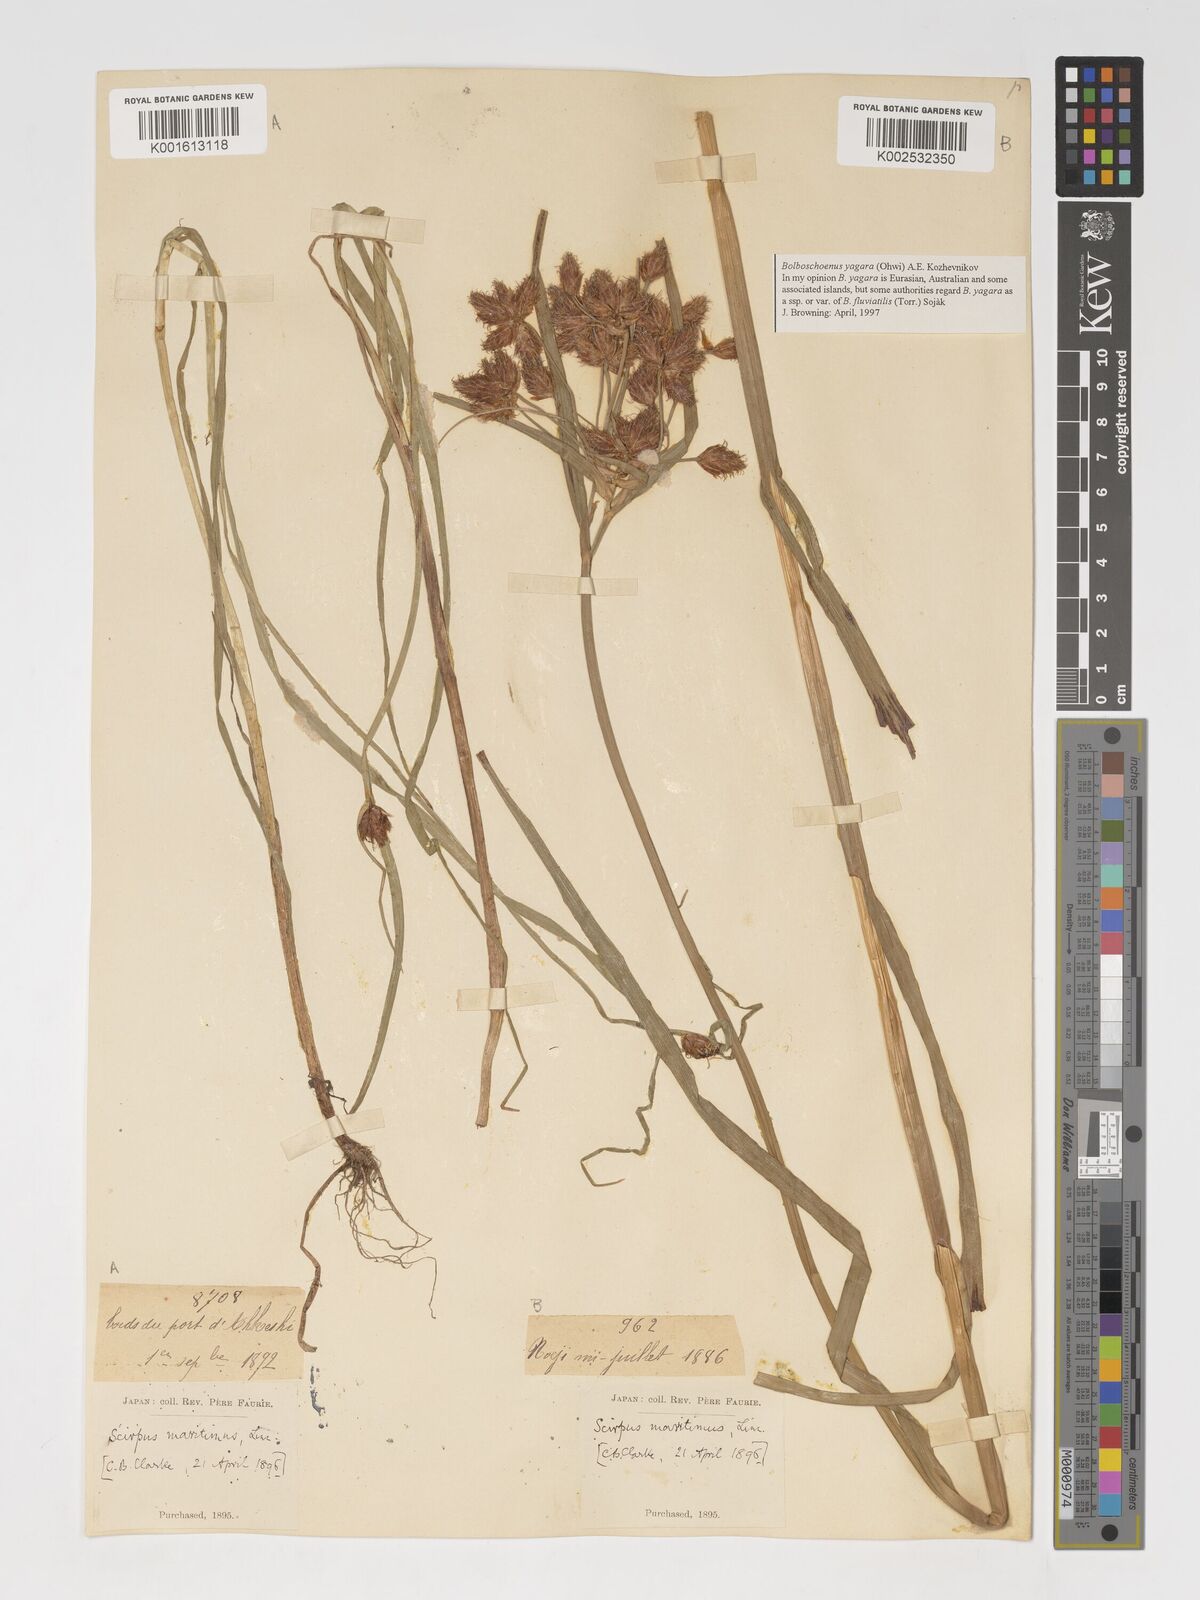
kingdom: Plantae
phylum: Tracheophyta
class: Liliopsida
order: Poales
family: Cyperaceae
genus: Bolboschoenus
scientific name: Bolboschoenus maritimus
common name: Sea club-rush
